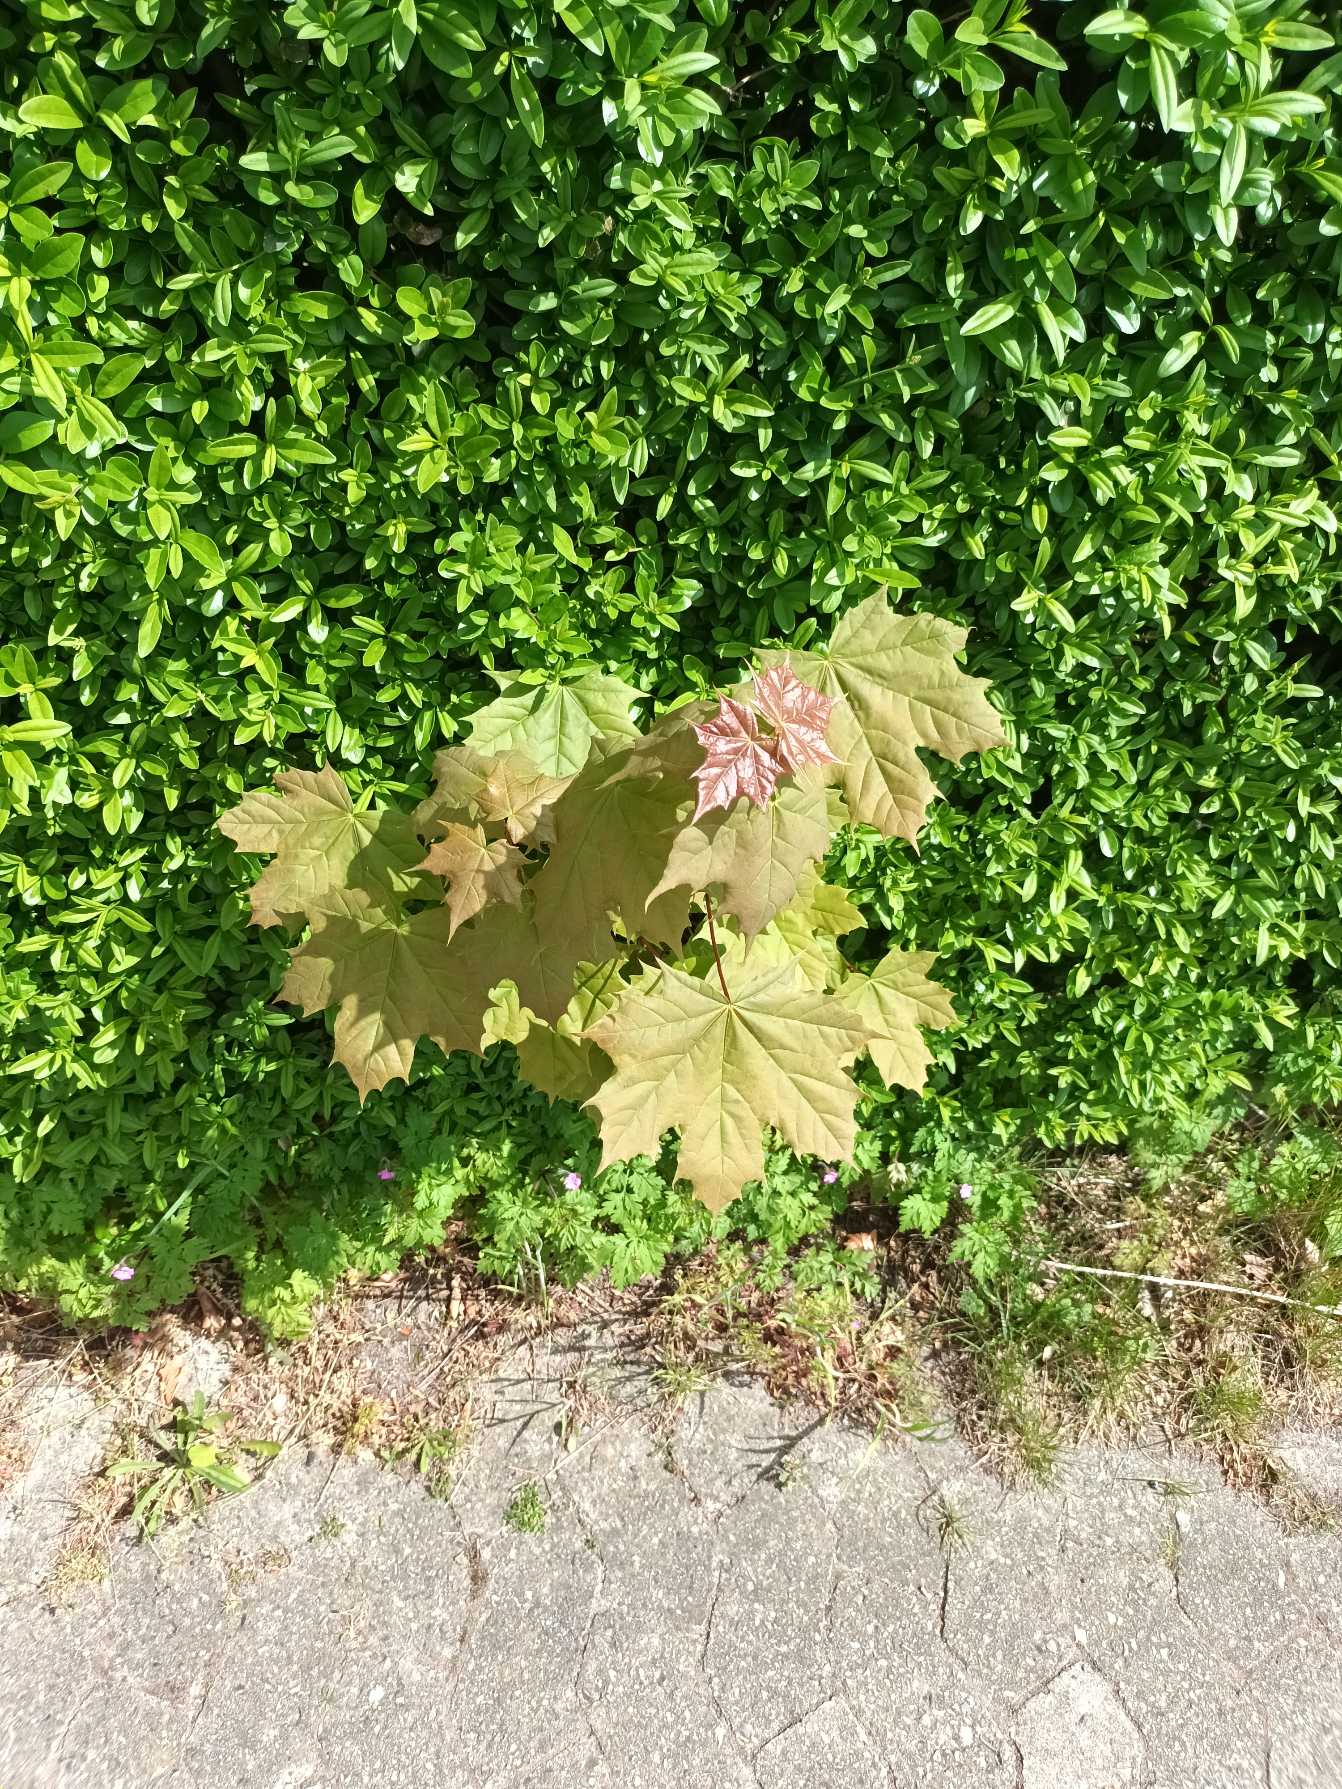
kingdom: Plantae
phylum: Tracheophyta
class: Magnoliopsida
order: Sapindales
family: Sapindaceae
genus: Acer
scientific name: Acer platanoides
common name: Spids-løn
